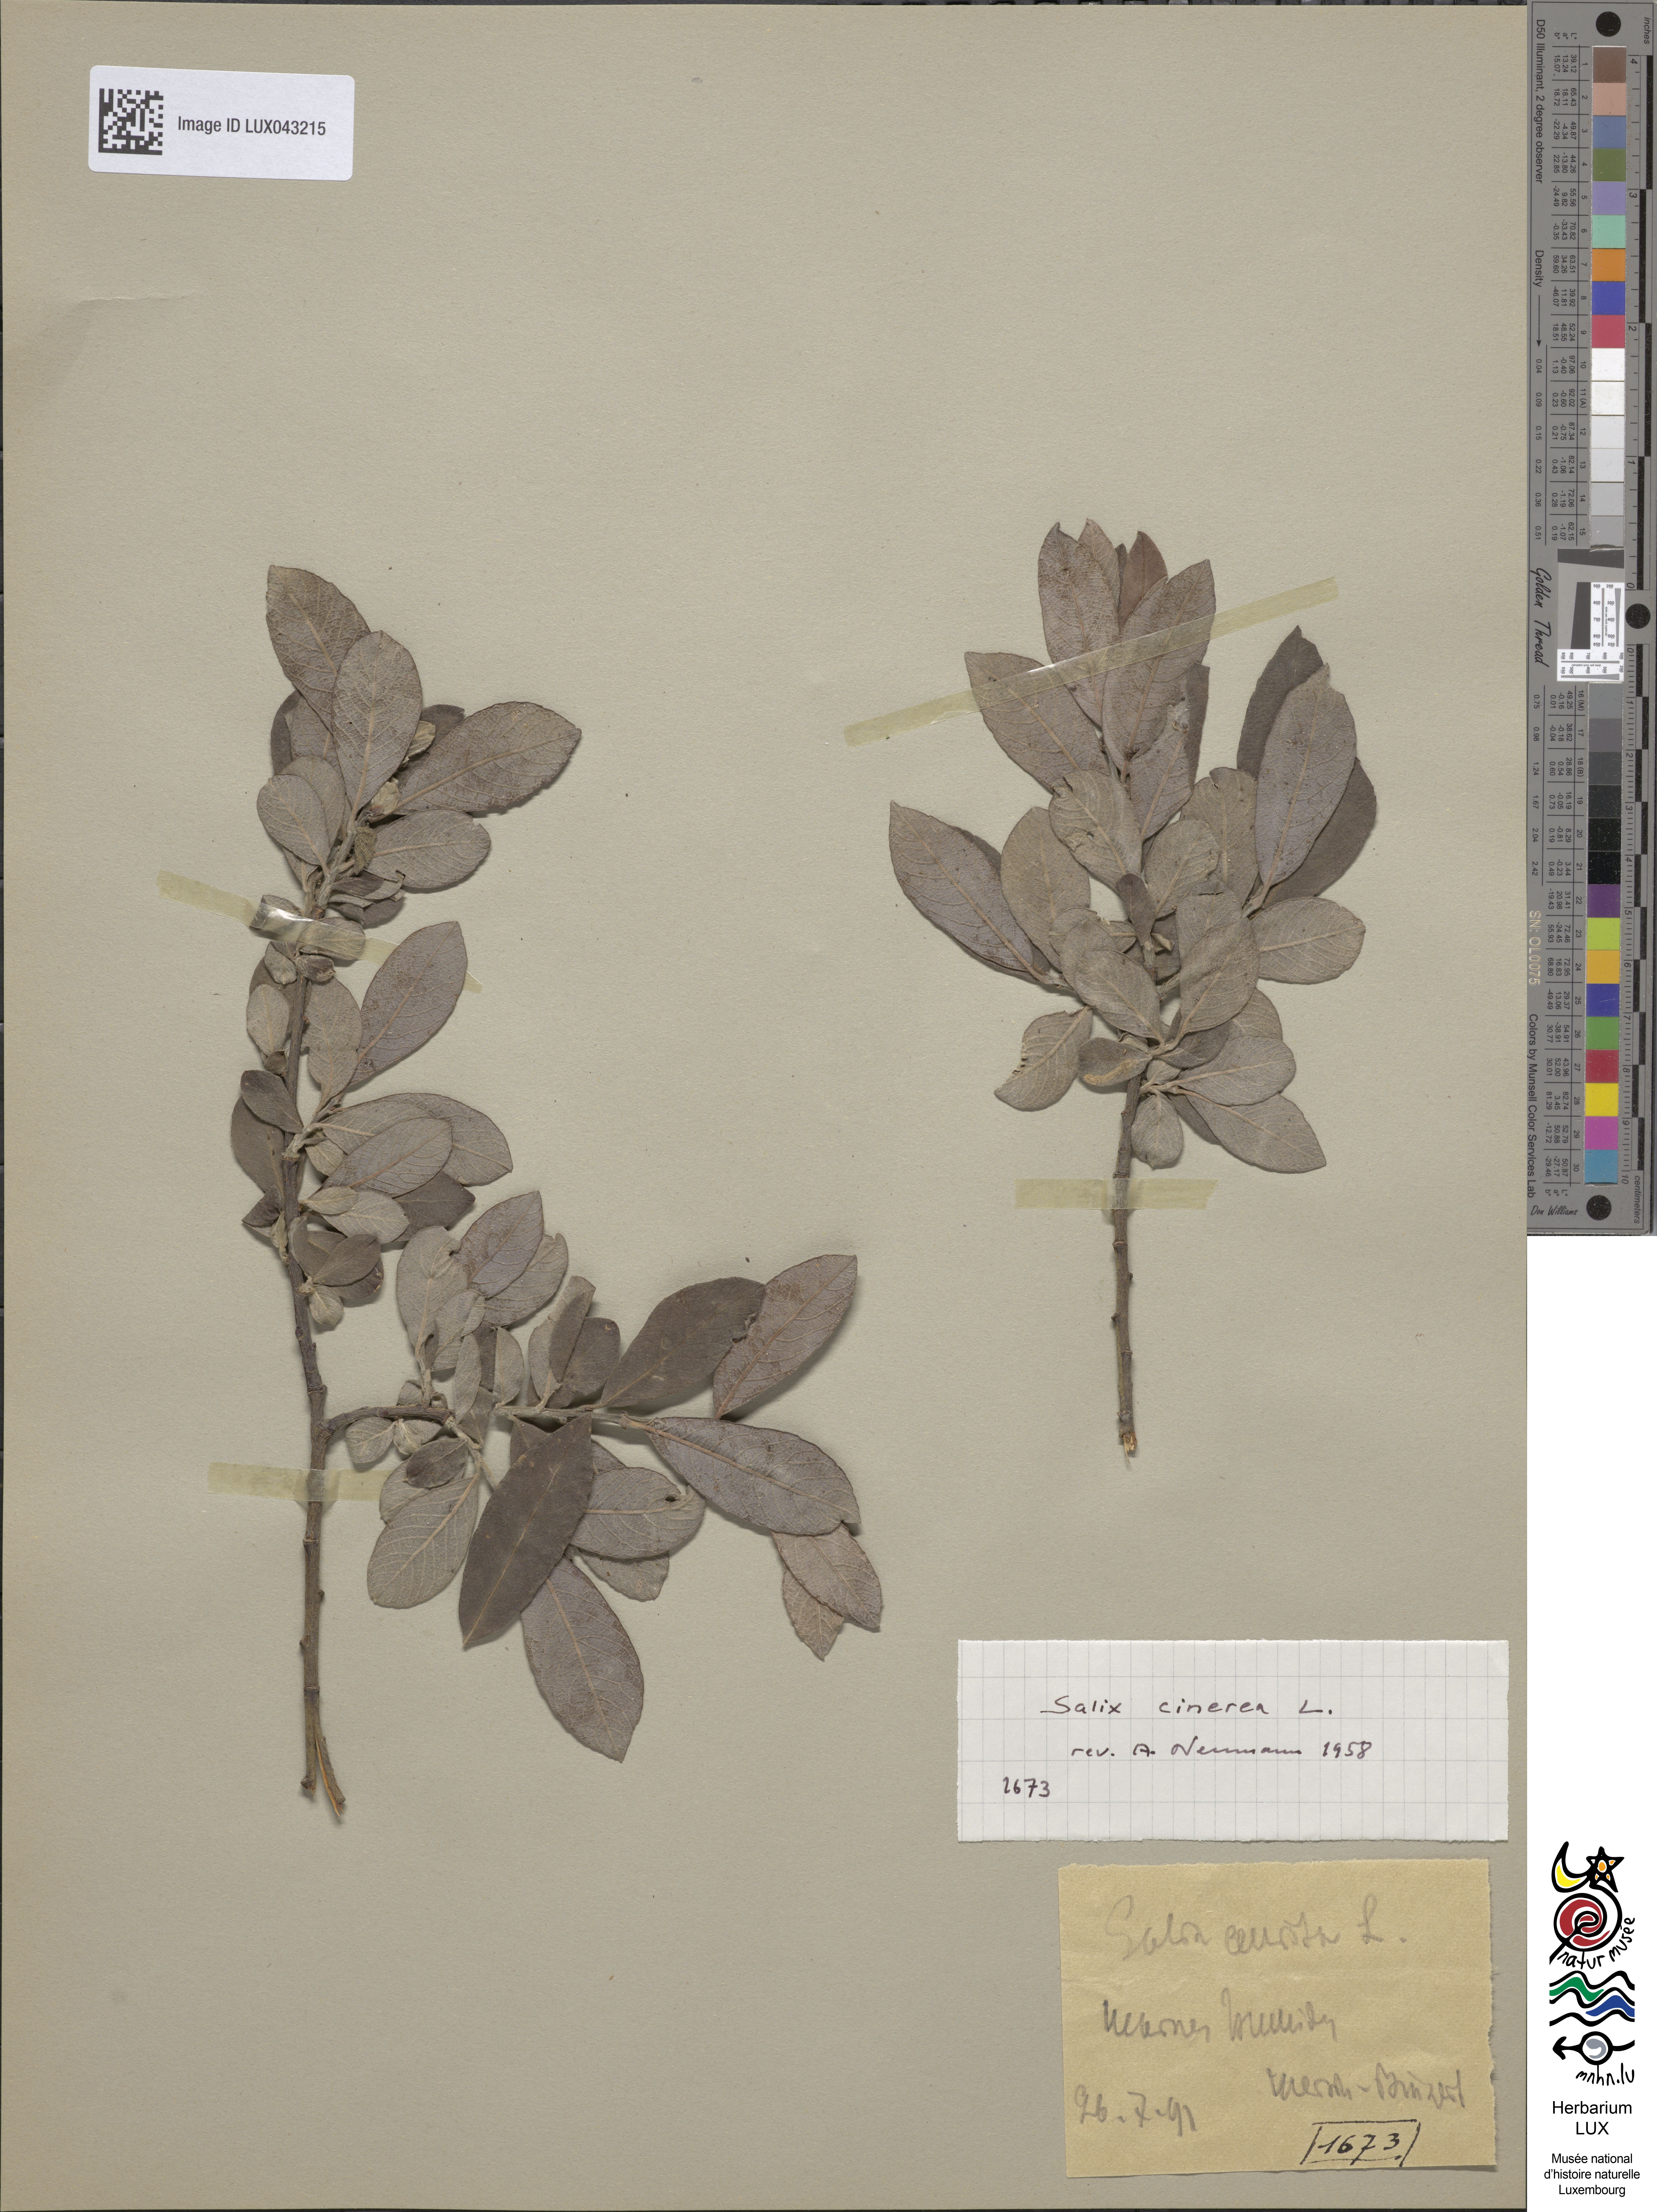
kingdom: Plantae
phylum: Tracheophyta
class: Magnoliopsida
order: Malpighiales
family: Salicaceae
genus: Salix
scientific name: Salix aurita
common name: Eared willow
